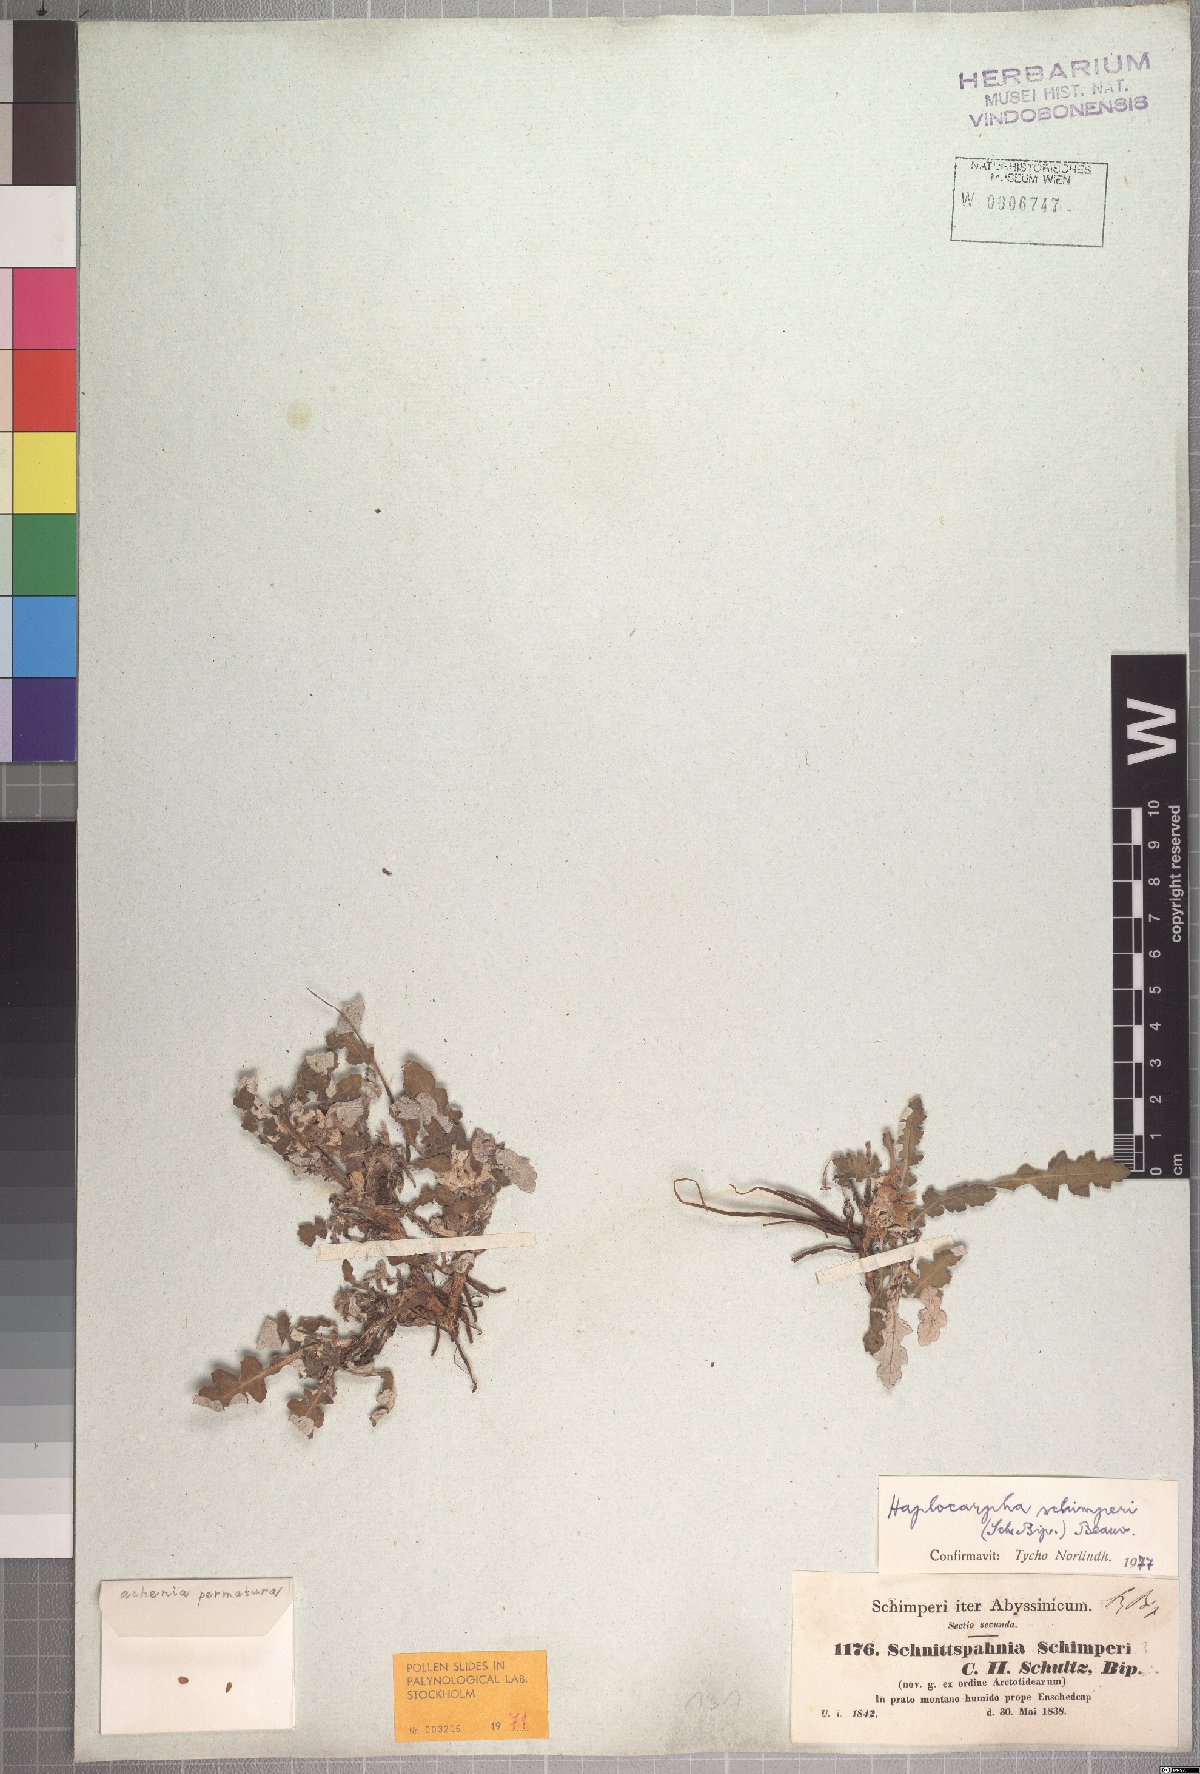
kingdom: Plantae
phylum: Tracheophyta
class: Magnoliopsida
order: Asterales
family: Asteraceae
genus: Haplocarpha
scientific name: Haplocarpha schimperi
